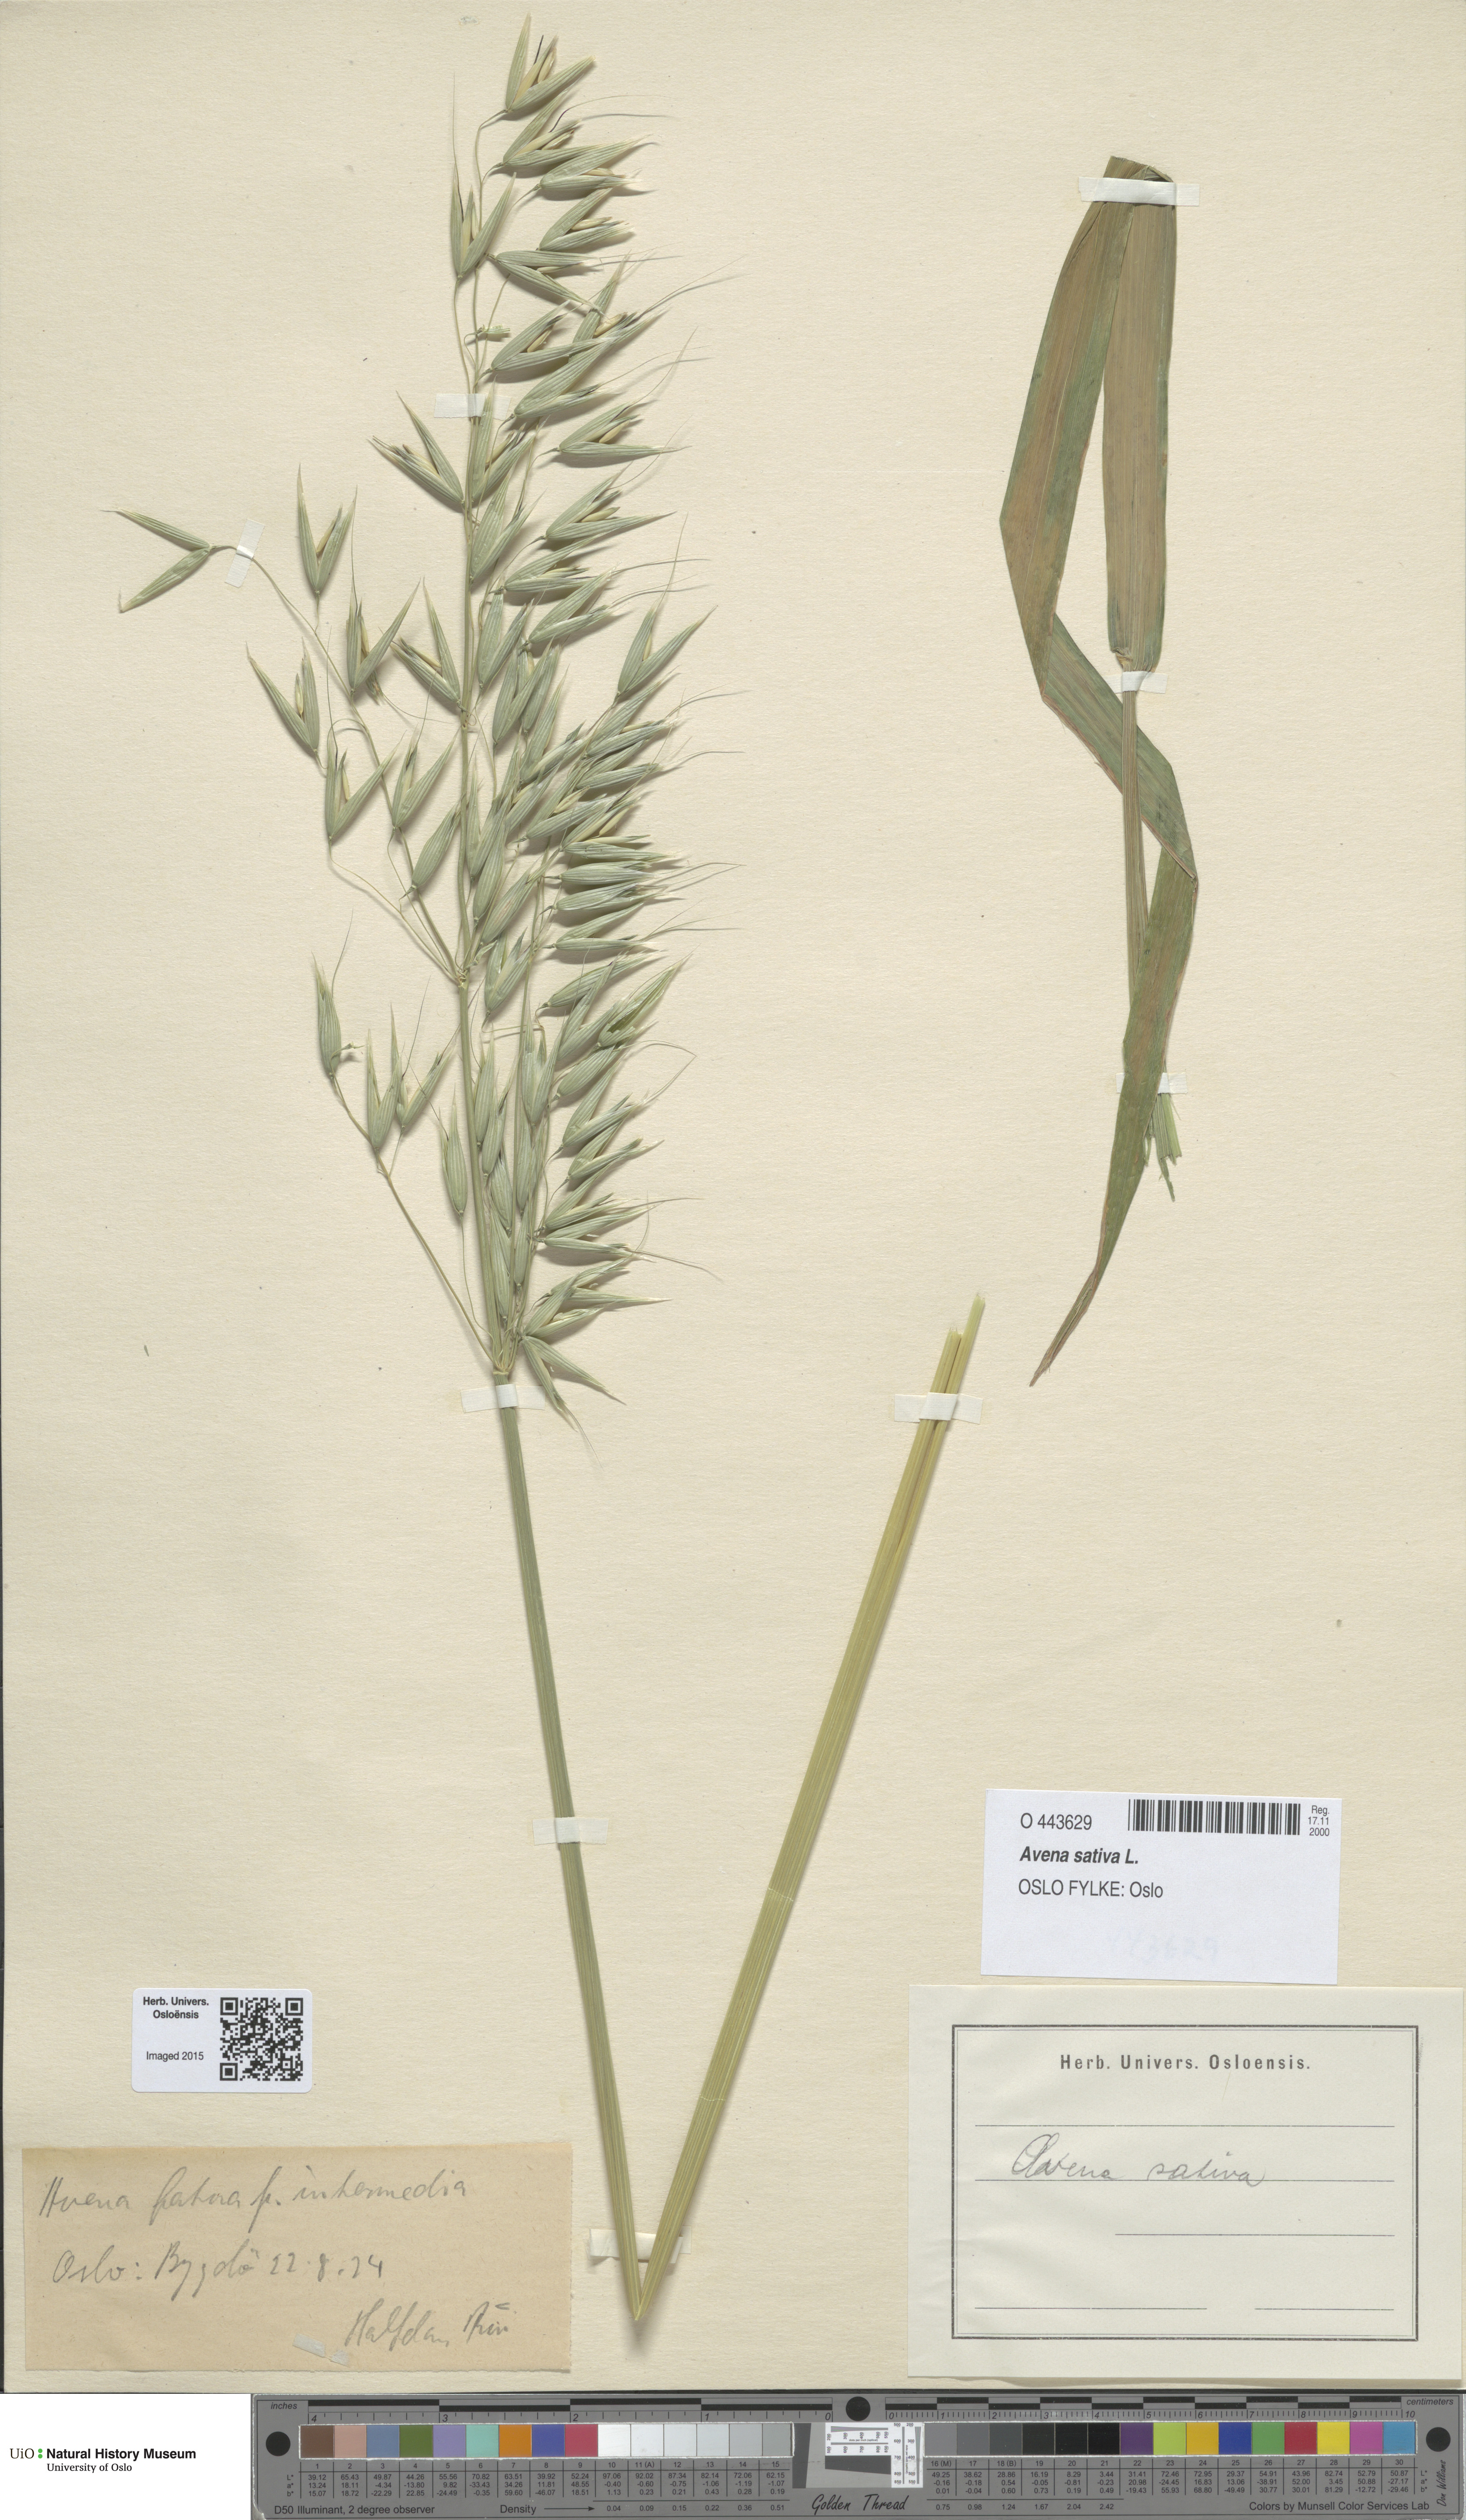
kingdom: Plantae
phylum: Tracheophyta
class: Liliopsida
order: Poales
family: Poaceae
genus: Avena
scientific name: Avena sativa
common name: Oat
